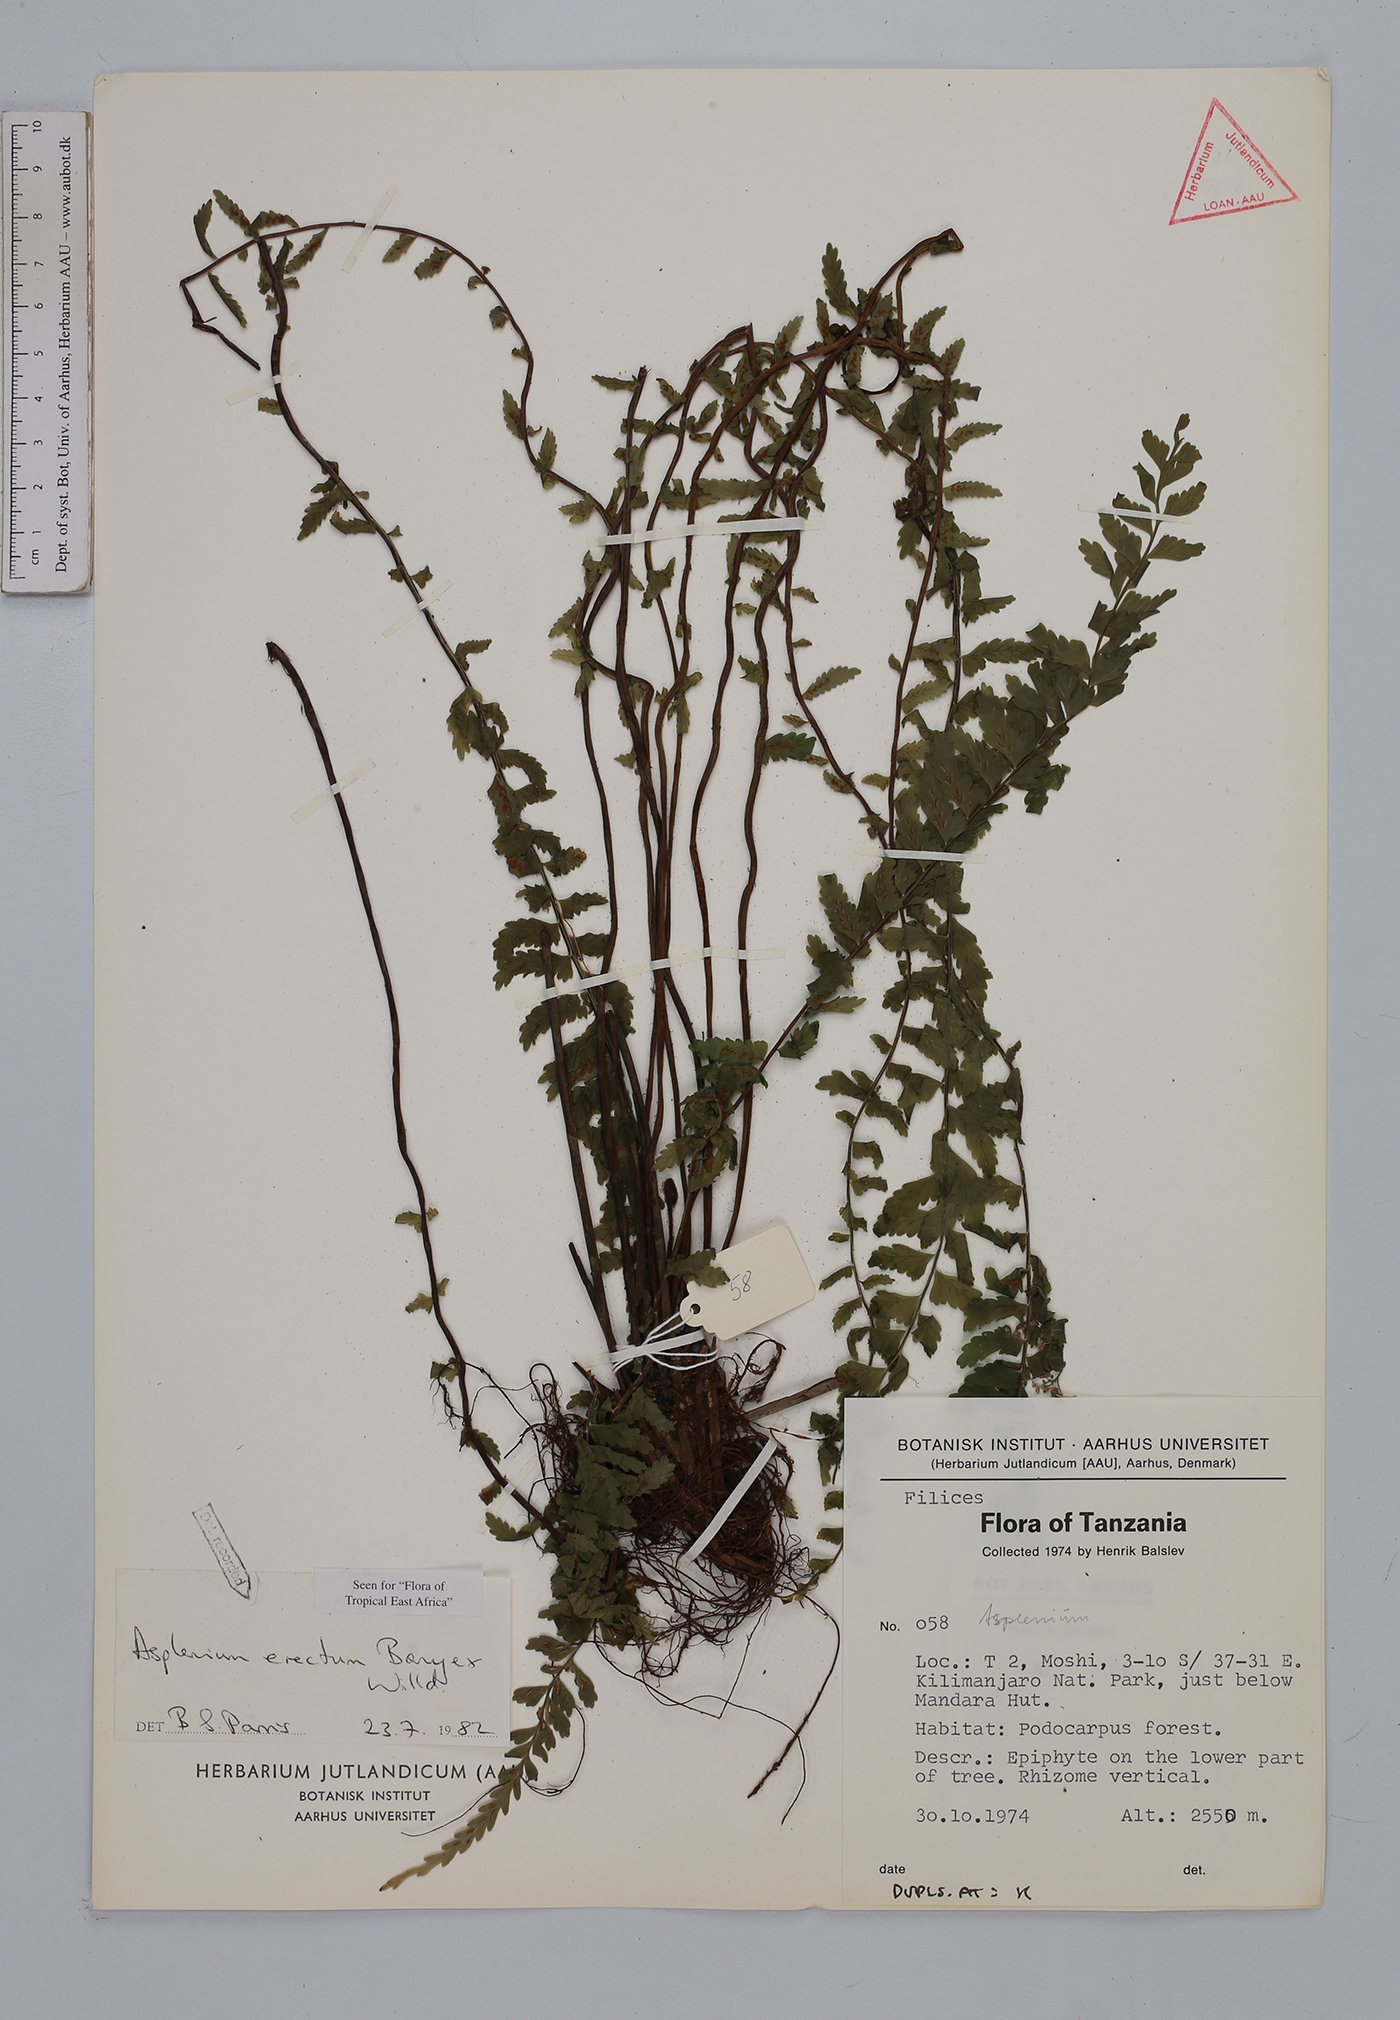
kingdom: Plantae
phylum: Tracheophyta
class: Polypodiopsida
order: Polypodiales
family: Aspleniaceae
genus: Asplenium
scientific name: Asplenium erectum
